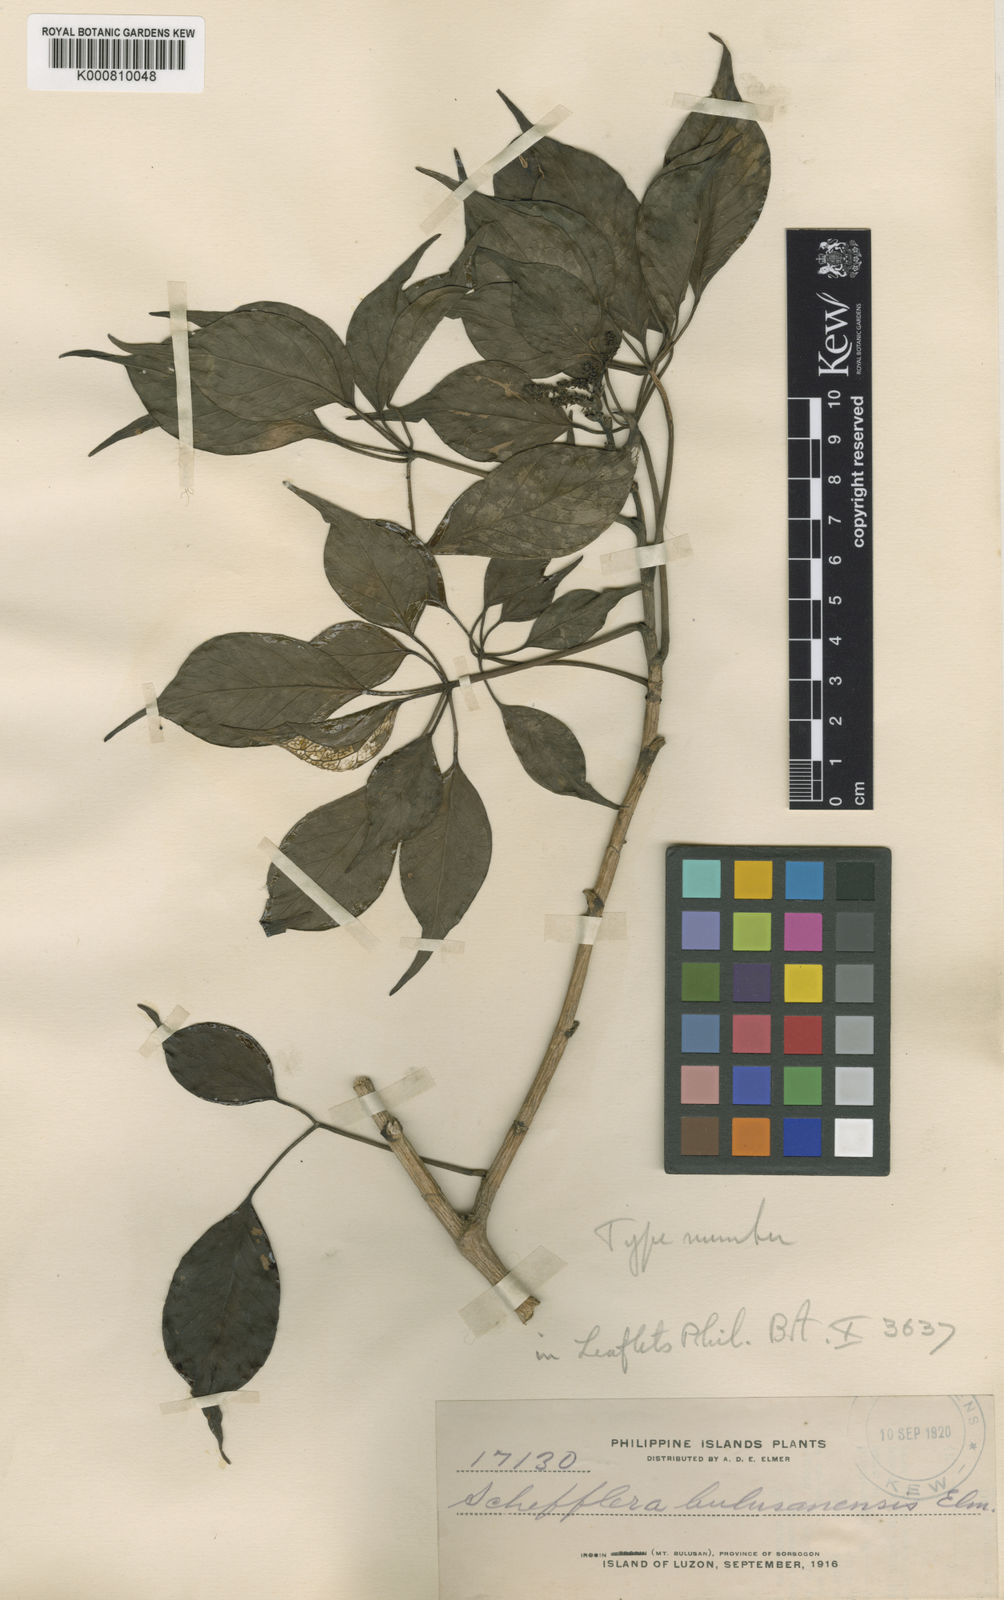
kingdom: Plantae
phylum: Tracheophyta
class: Magnoliopsida
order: Apiales
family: Araliaceae
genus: Heptapleurum
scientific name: Heptapleurum caudatifolium
